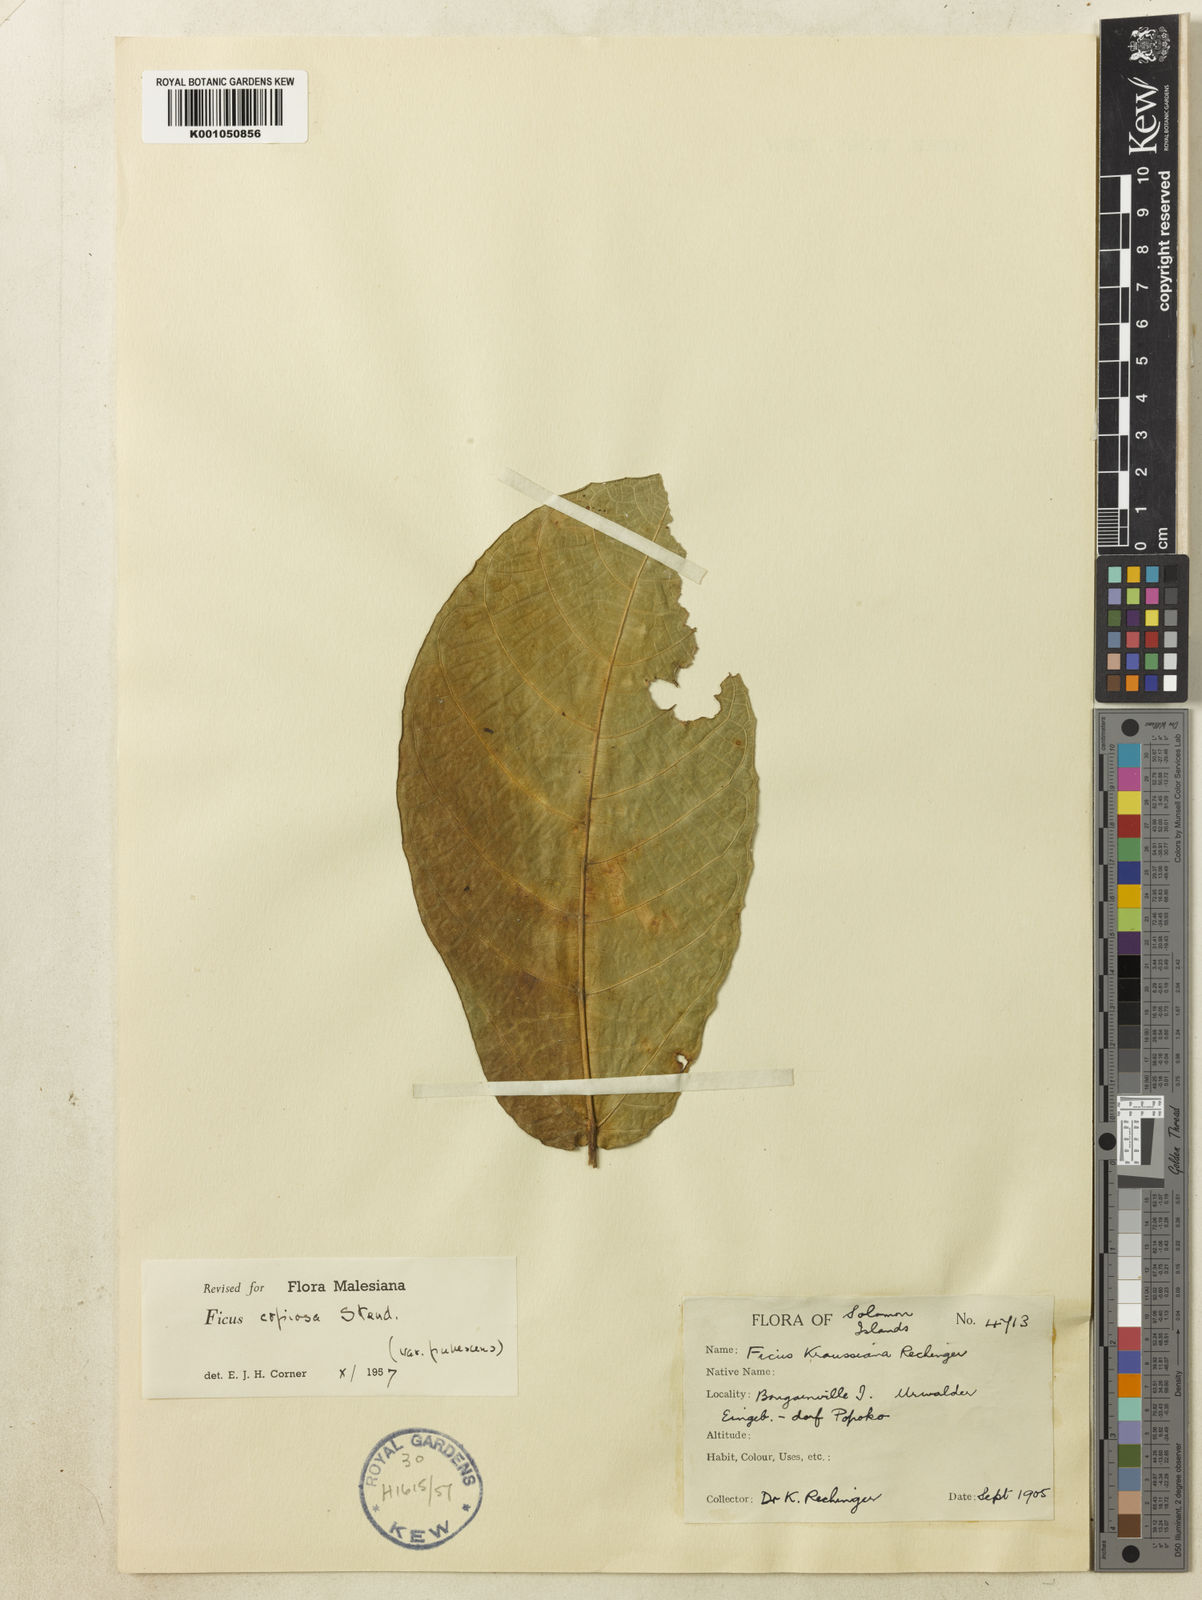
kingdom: Plantae
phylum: Tracheophyta
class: Magnoliopsida
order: Rosales
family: Moraceae
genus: Ficus
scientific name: Ficus copiosa
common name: Plentiful fig
